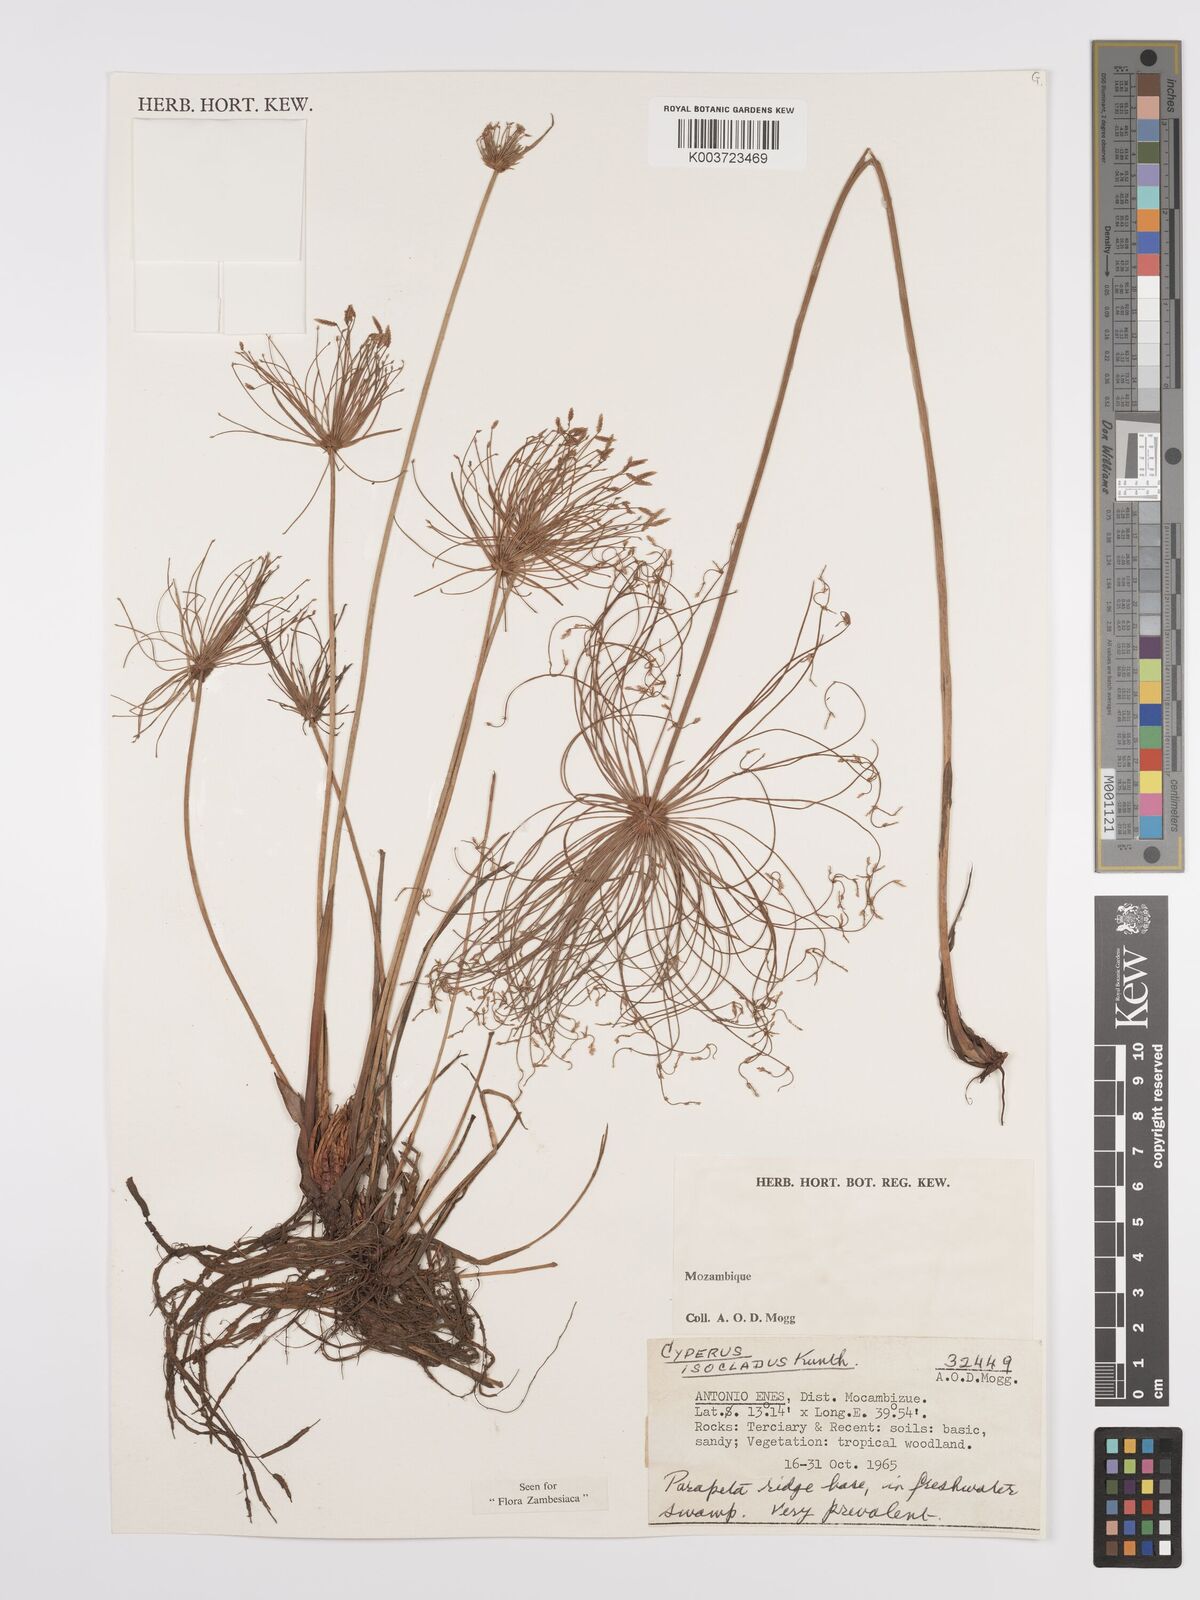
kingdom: Plantae
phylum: Tracheophyta
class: Liliopsida
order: Poales
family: Cyperaceae
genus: Cyperus
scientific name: Cyperus prolifer
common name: Miniature flatsedge
